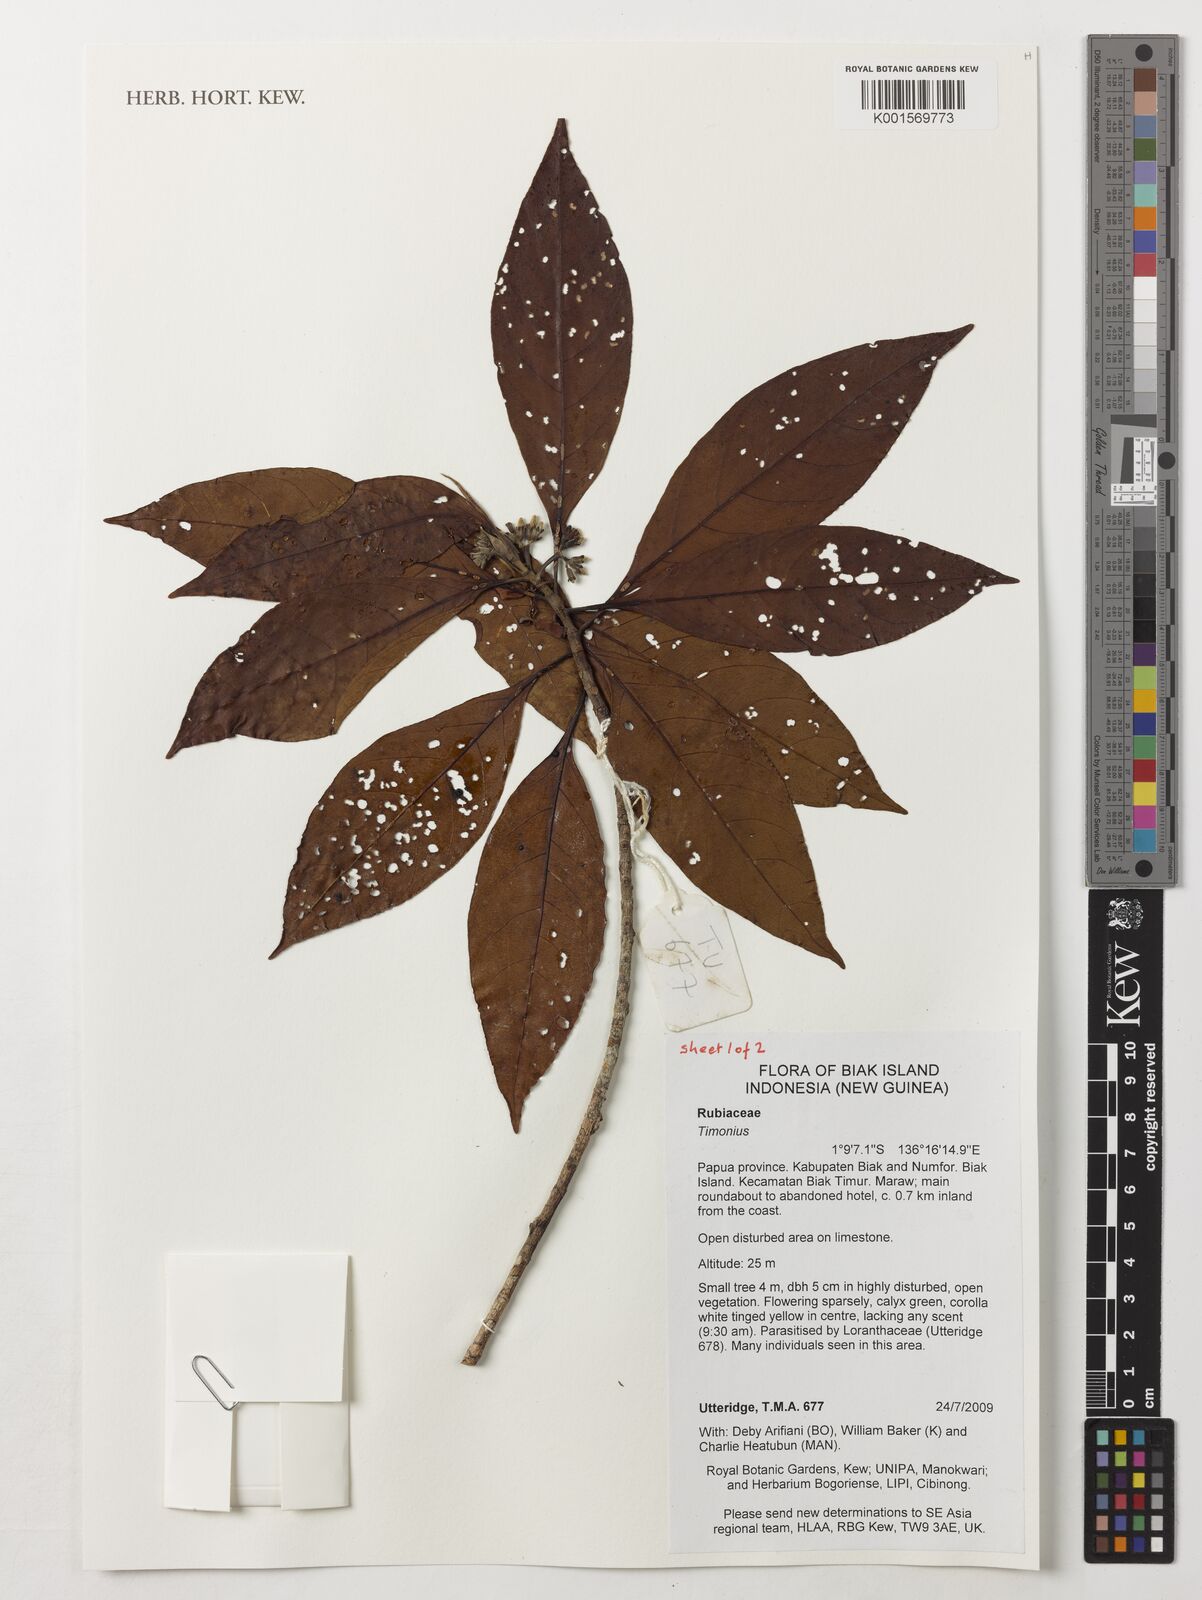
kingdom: Plantae
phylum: Tracheophyta
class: Magnoliopsida
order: Gentianales
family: Rubiaceae
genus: Timonius
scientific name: Timonius
